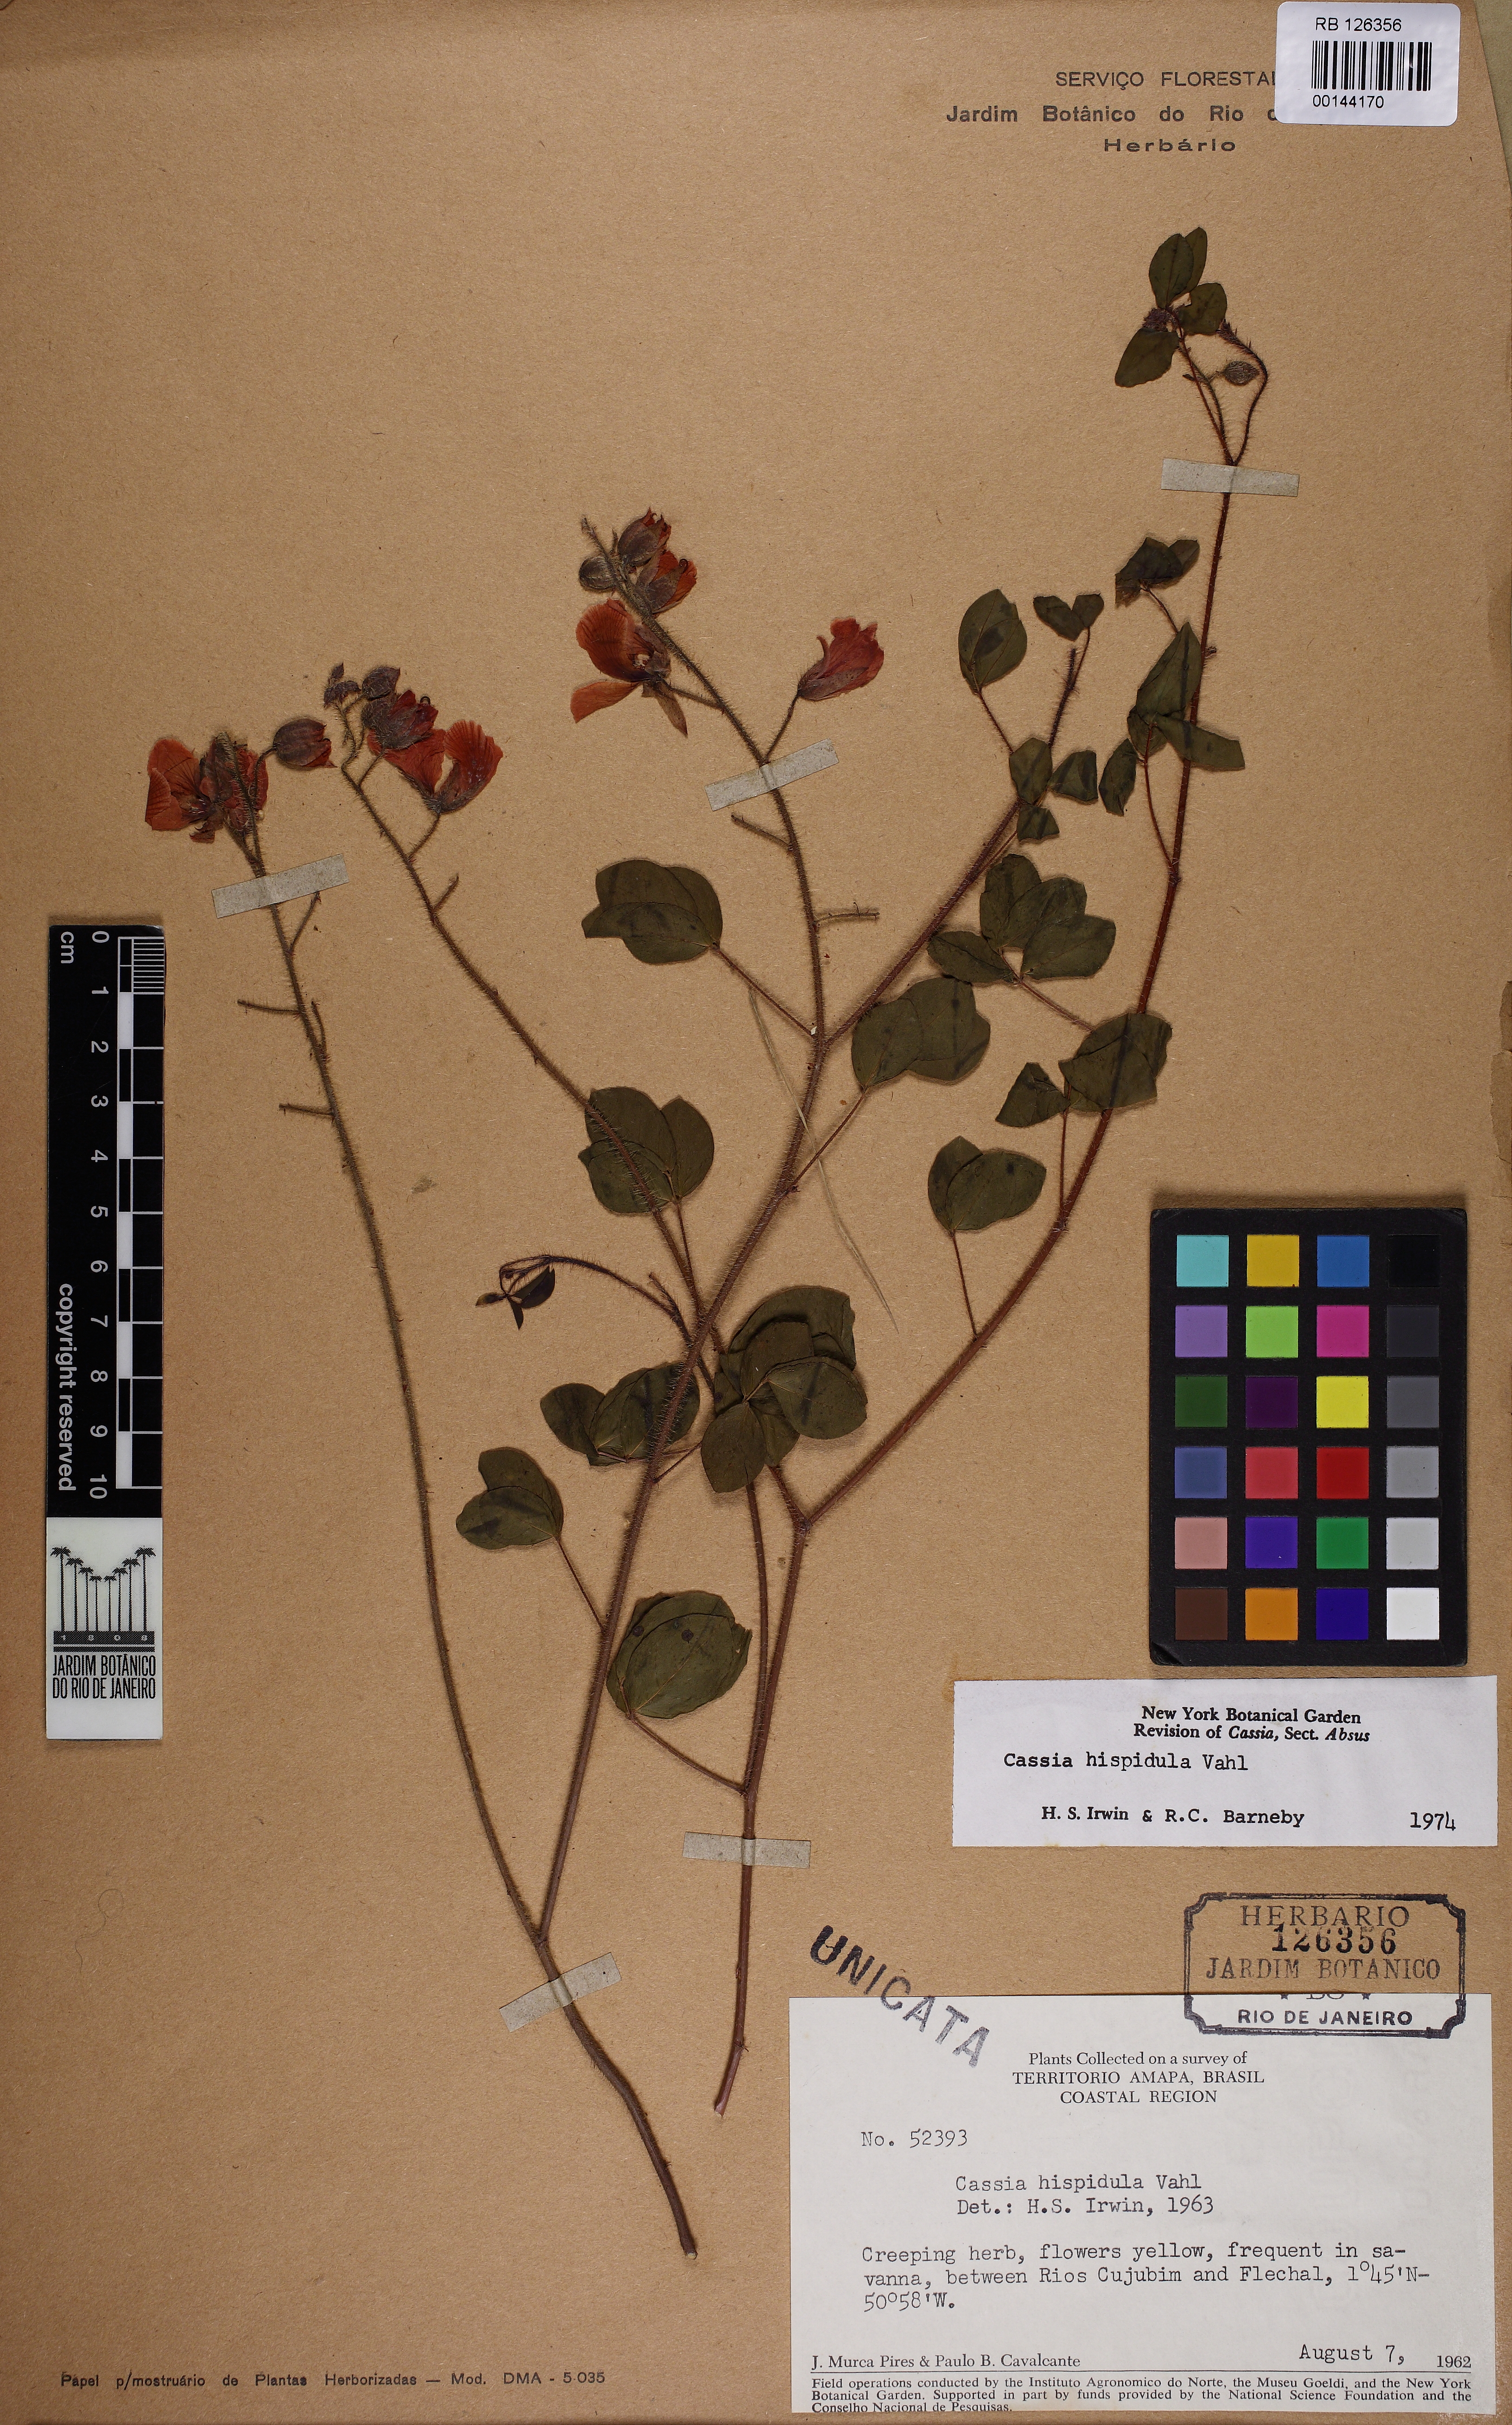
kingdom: Plantae
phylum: Tracheophyta
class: Magnoliopsida
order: Fabales
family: Fabaceae
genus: Chamaecrista
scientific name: Chamaecrista hispidula
